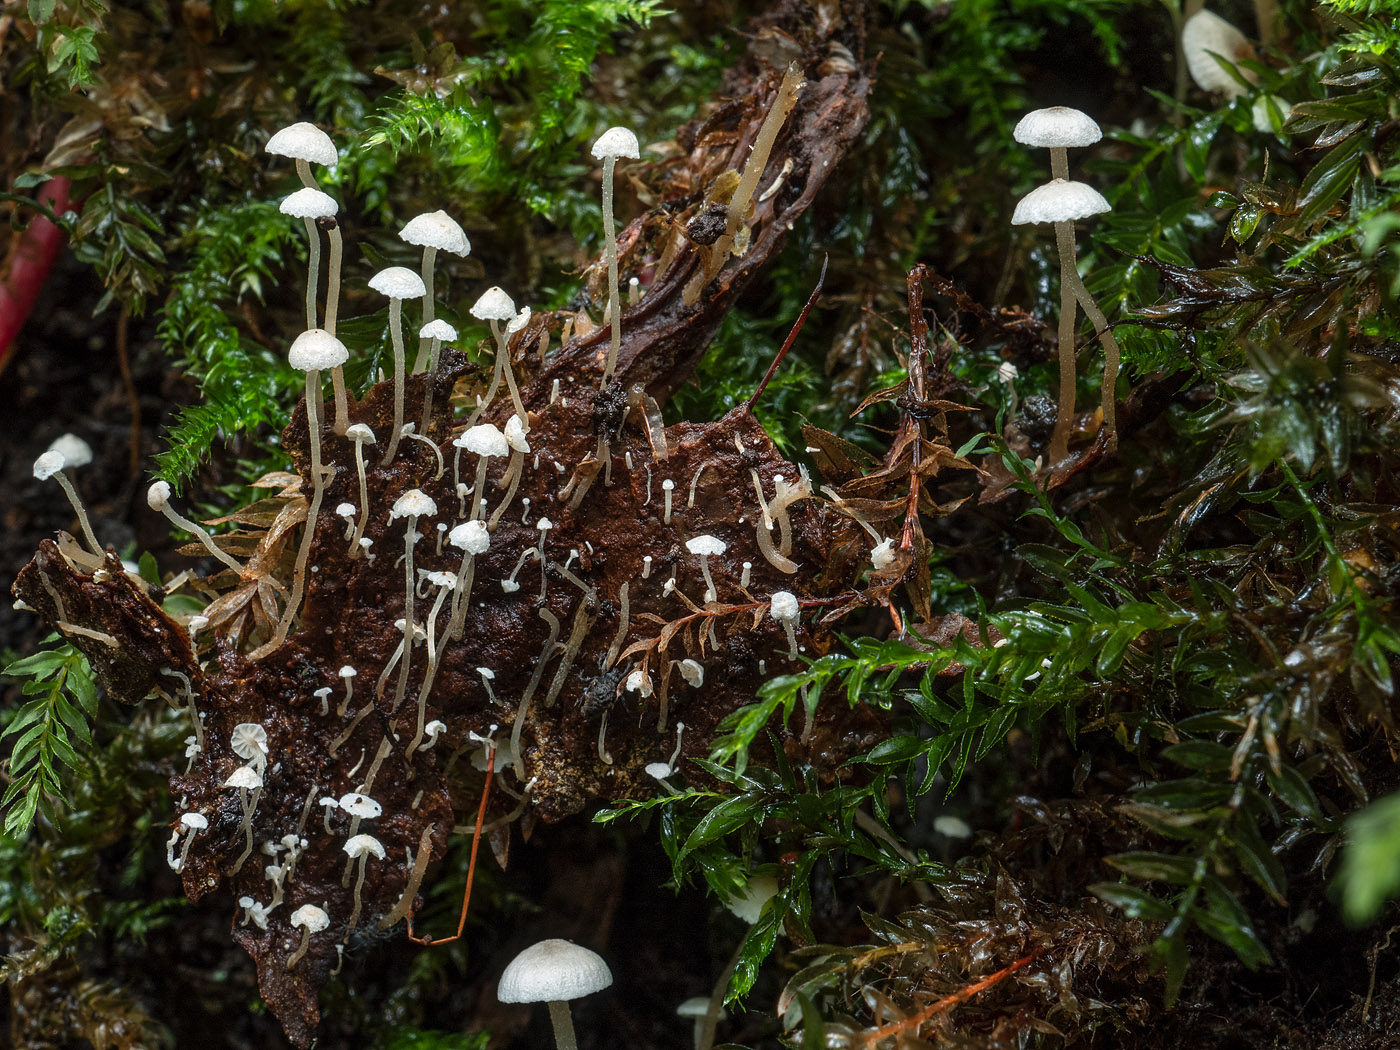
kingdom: Fungi
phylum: Basidiomycota
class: Agaricomycetes
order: Agaricales
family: Tricholomataceae
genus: Collybia
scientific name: Collybia cirrhata
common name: silke-lighat
